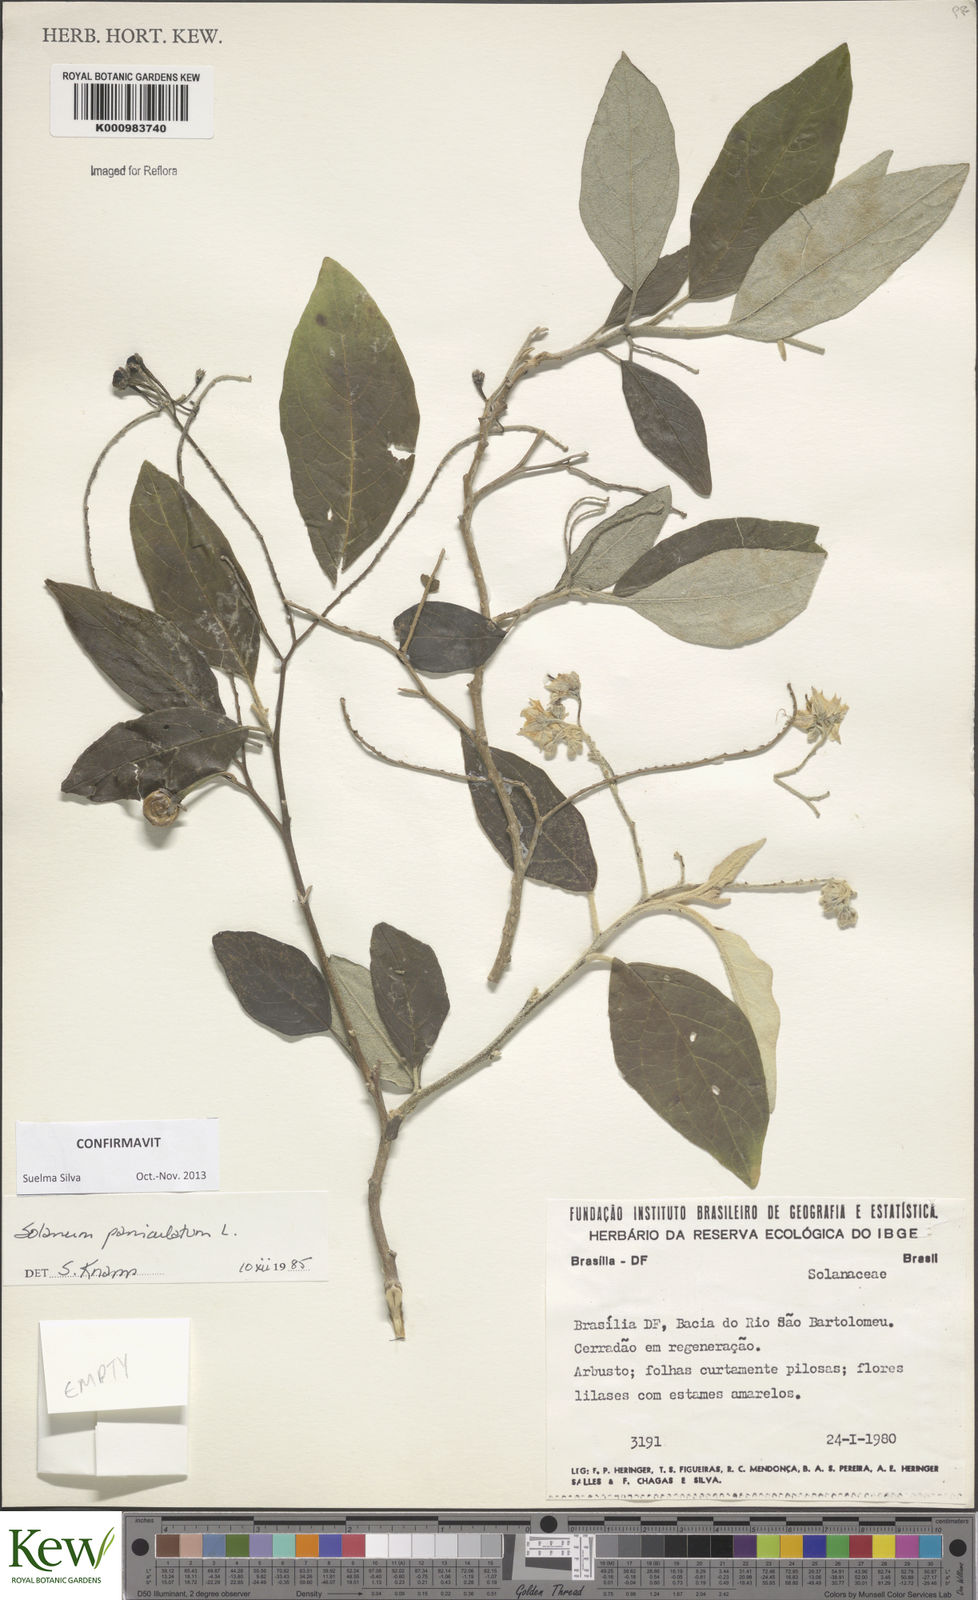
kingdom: Plantae
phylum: Tracheophyta
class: Magnoliopsida
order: Solanales
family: Solanaceae
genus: Solanum
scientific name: Solanum paniculatum
